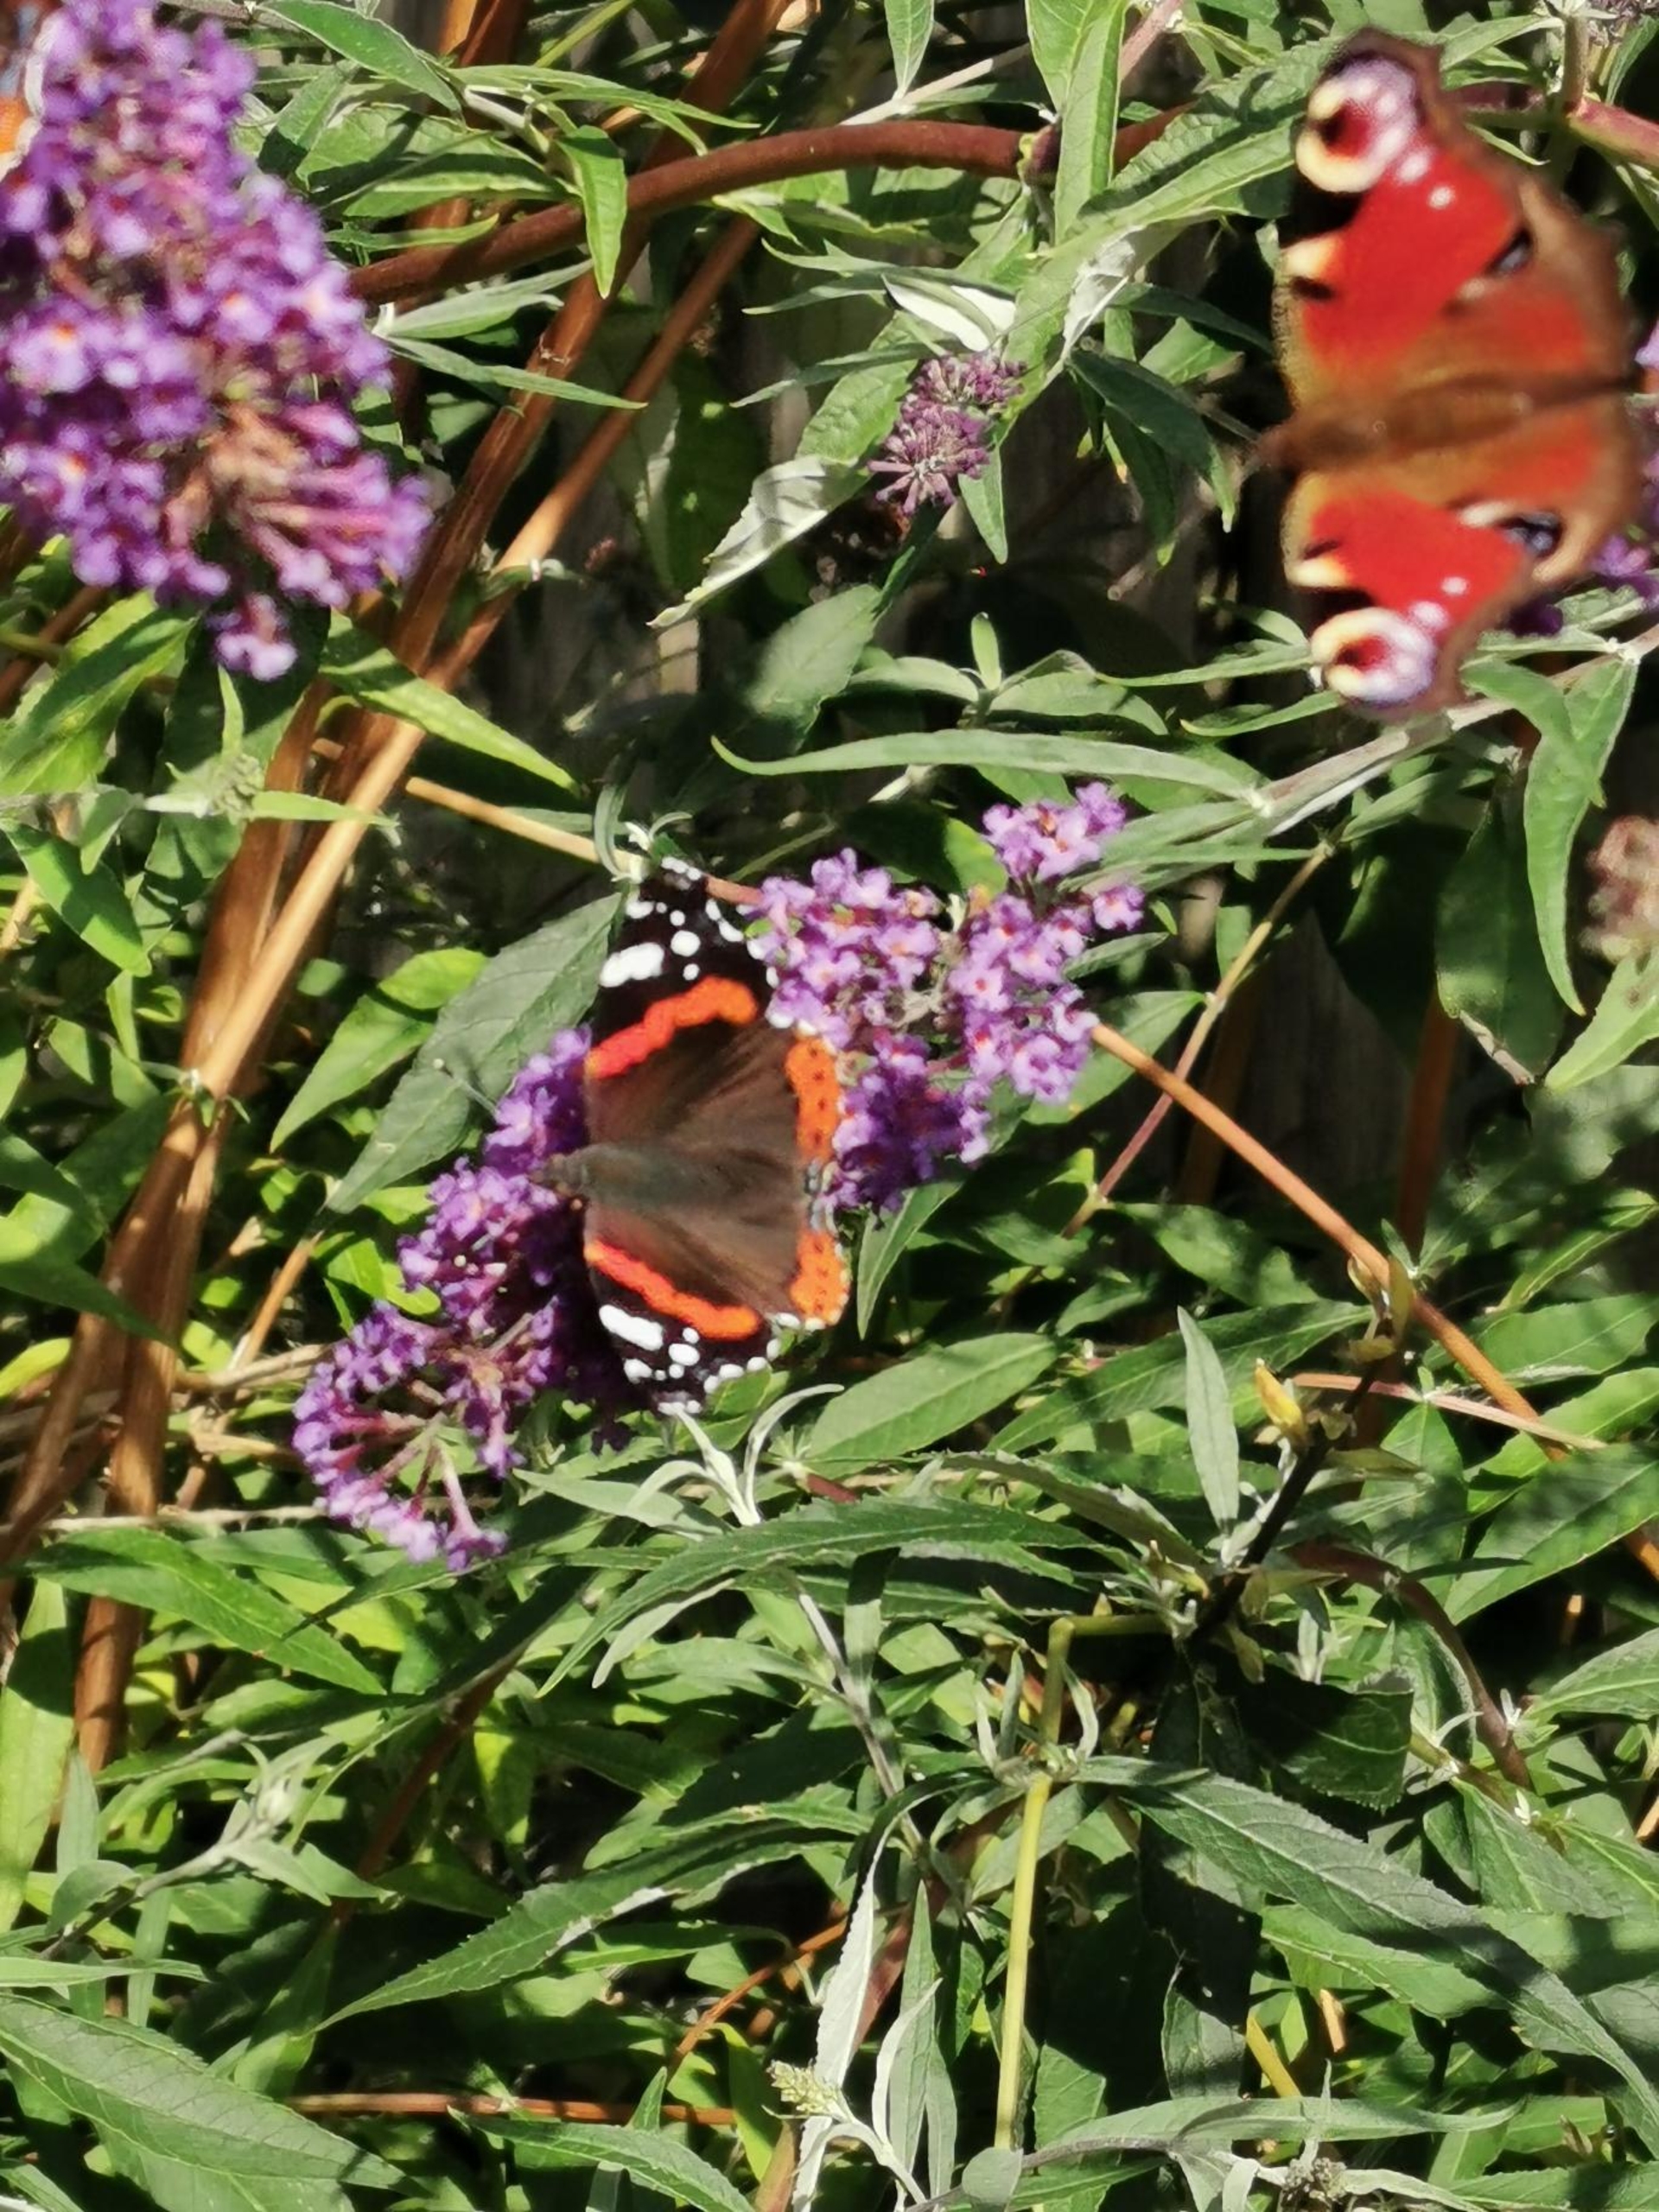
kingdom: Animalia
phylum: Arthropoda
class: Insecta
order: Lepidoptera
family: Nymphalidae
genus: Vanessa
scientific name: Vanessa atalanta
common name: Admiral
